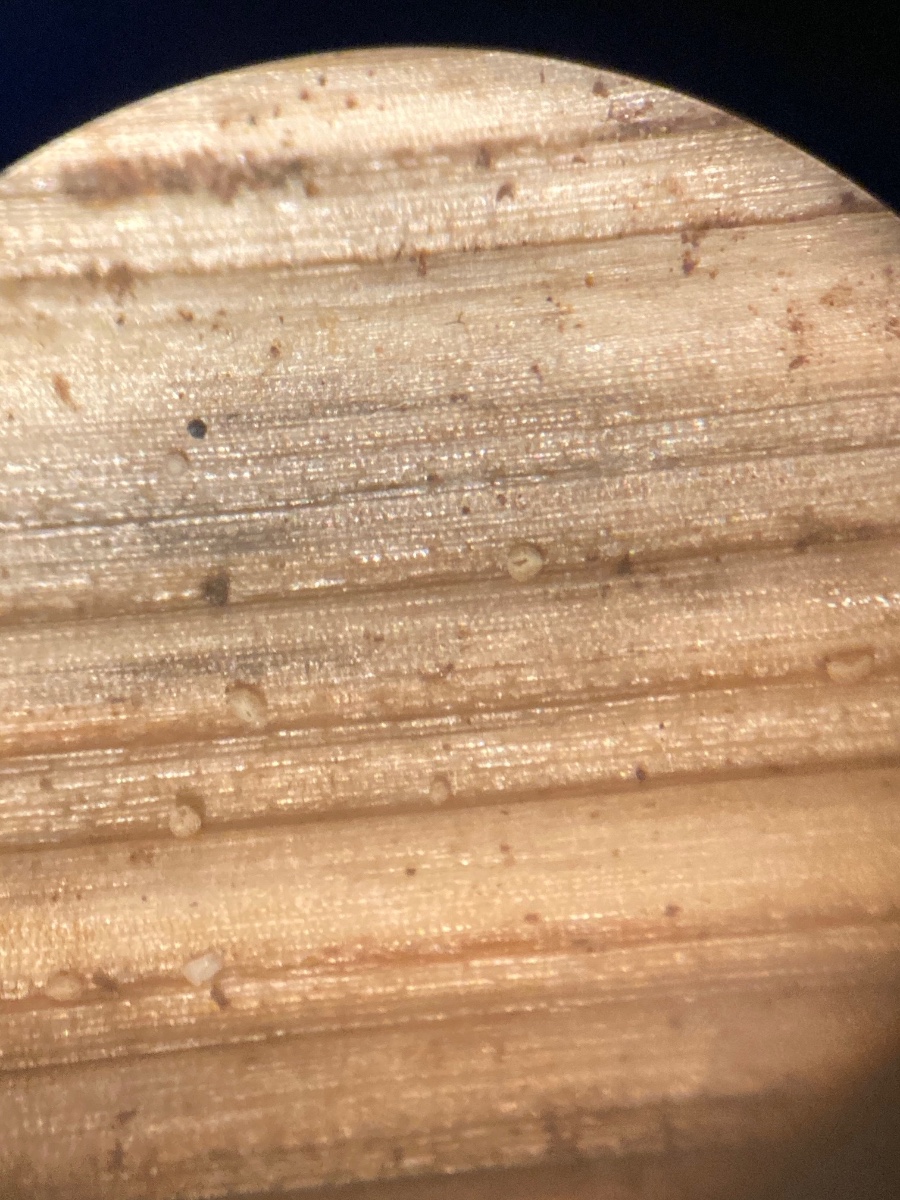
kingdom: Fungi
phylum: Ascomycota
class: Leotiomycetes
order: Helotiales
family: Hyaloscyphaceae
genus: Cistella
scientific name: Cistella hungarica
